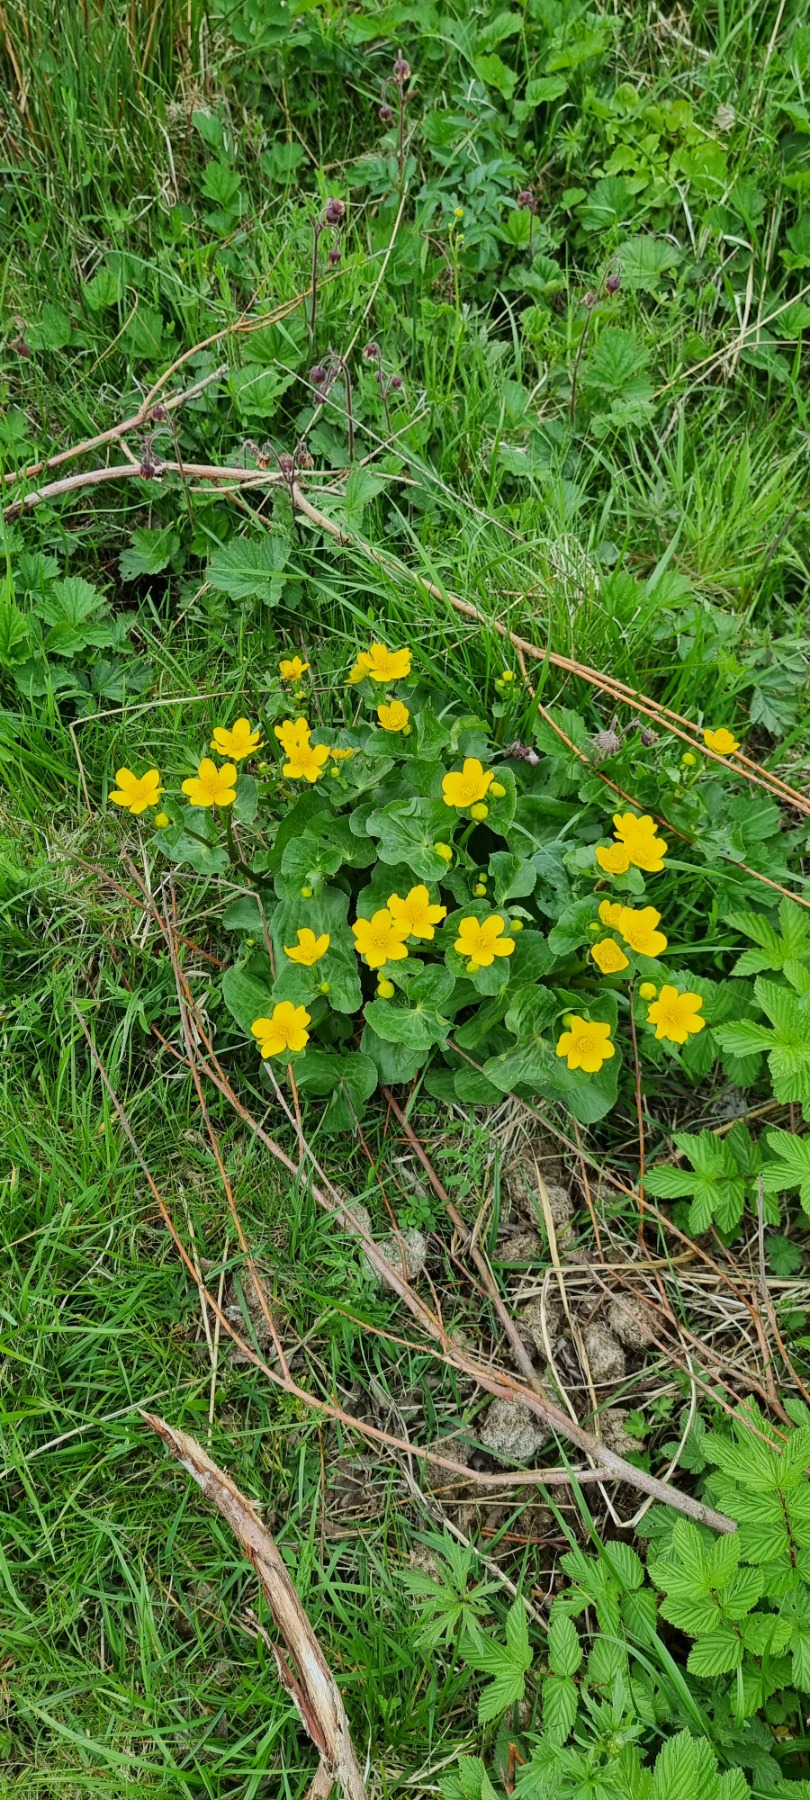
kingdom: Plantae
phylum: Tracheophyta
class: Magnoliopsida
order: Ranunculales
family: Ranunculaceae
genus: Caltha
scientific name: Caltha palustris
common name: Eng-kabbeleje
